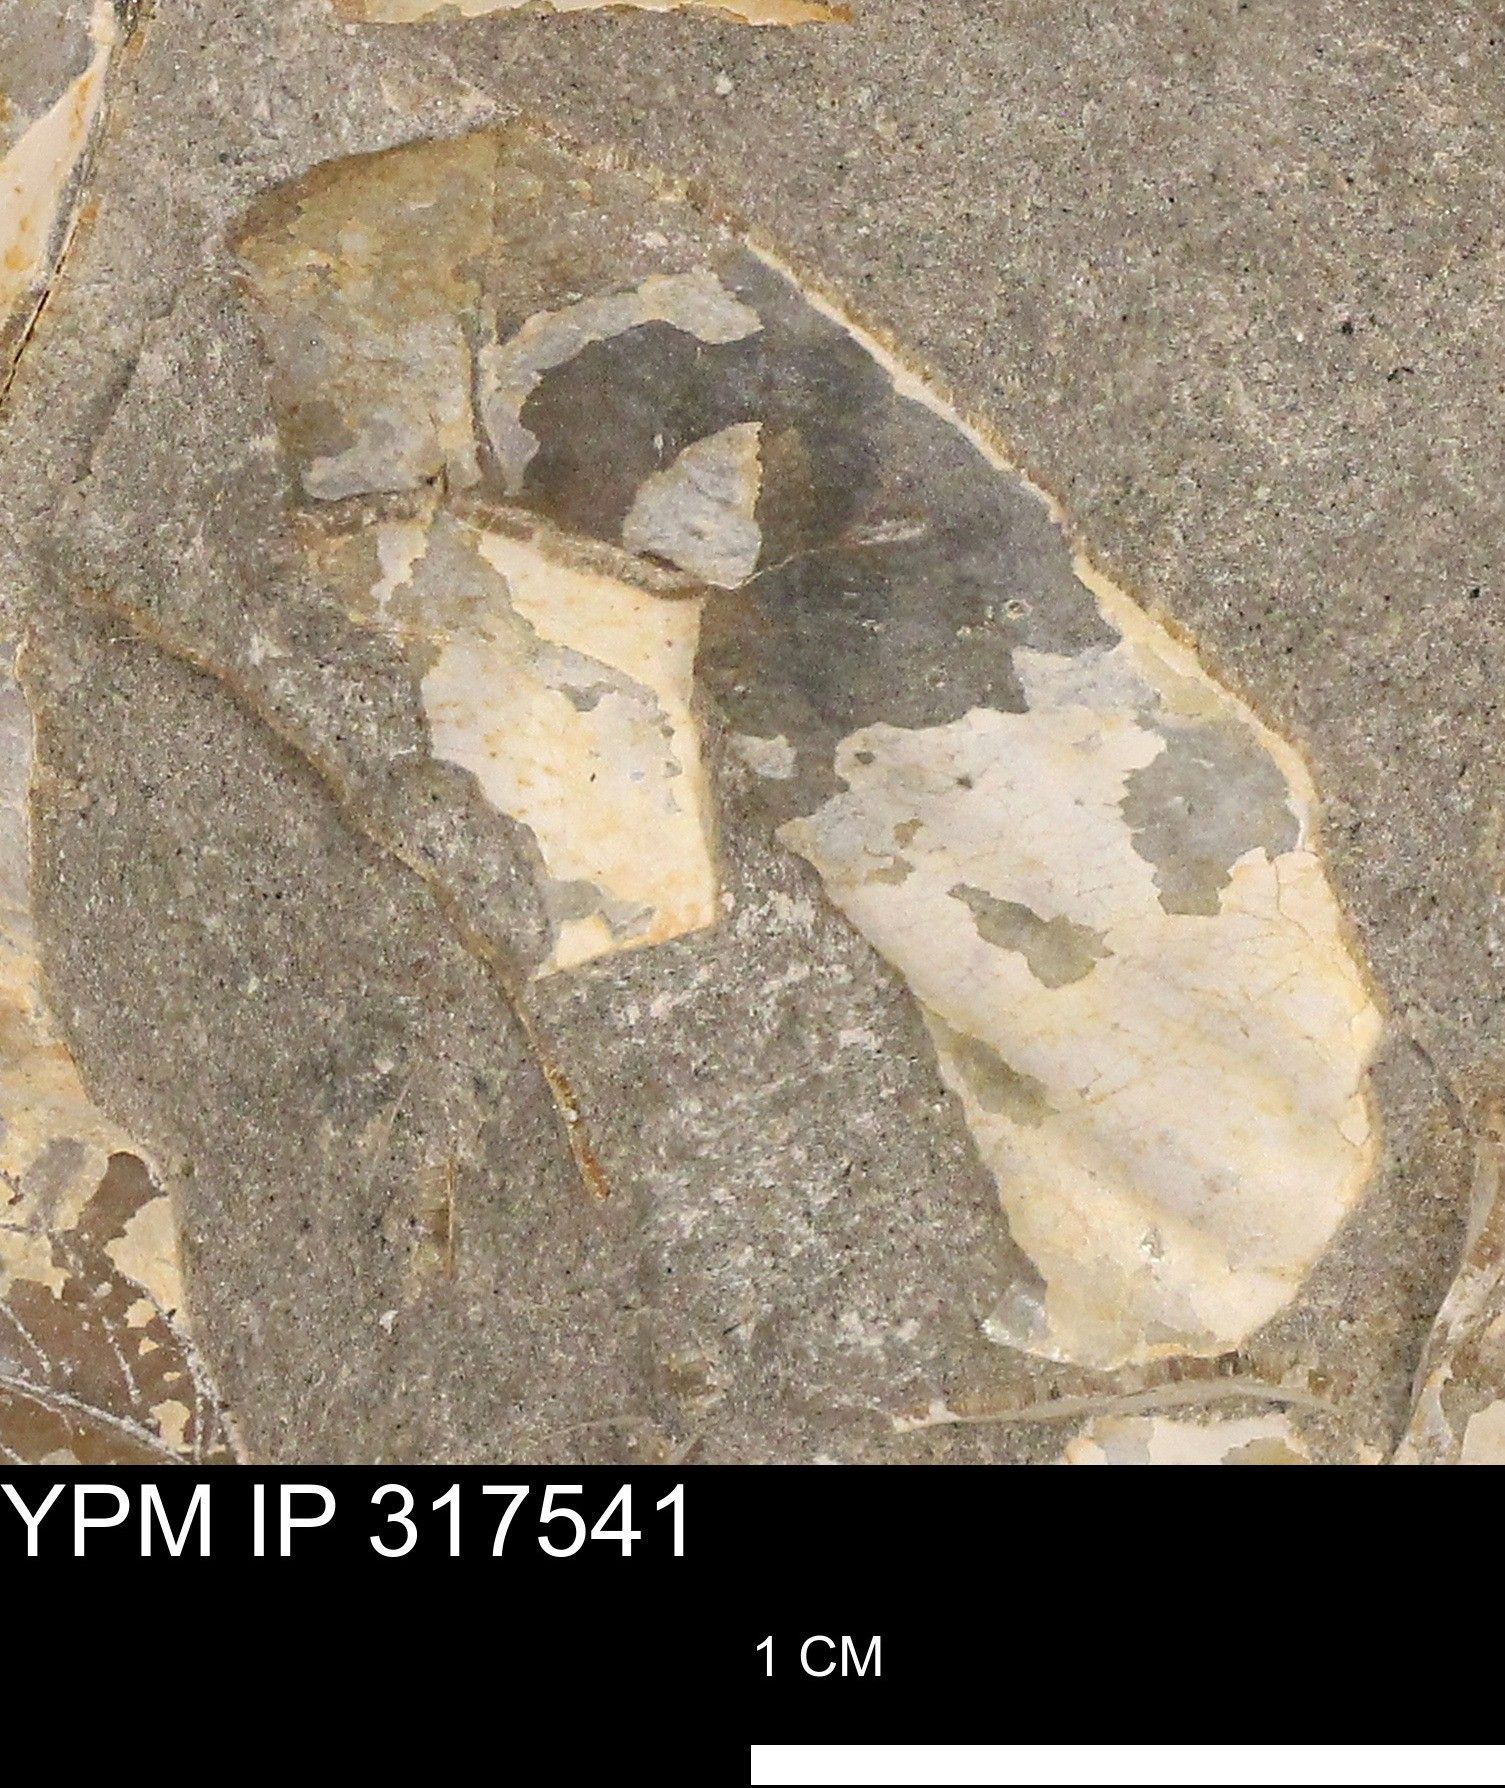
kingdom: Animalia
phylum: Mollusca
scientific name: Mollusca
